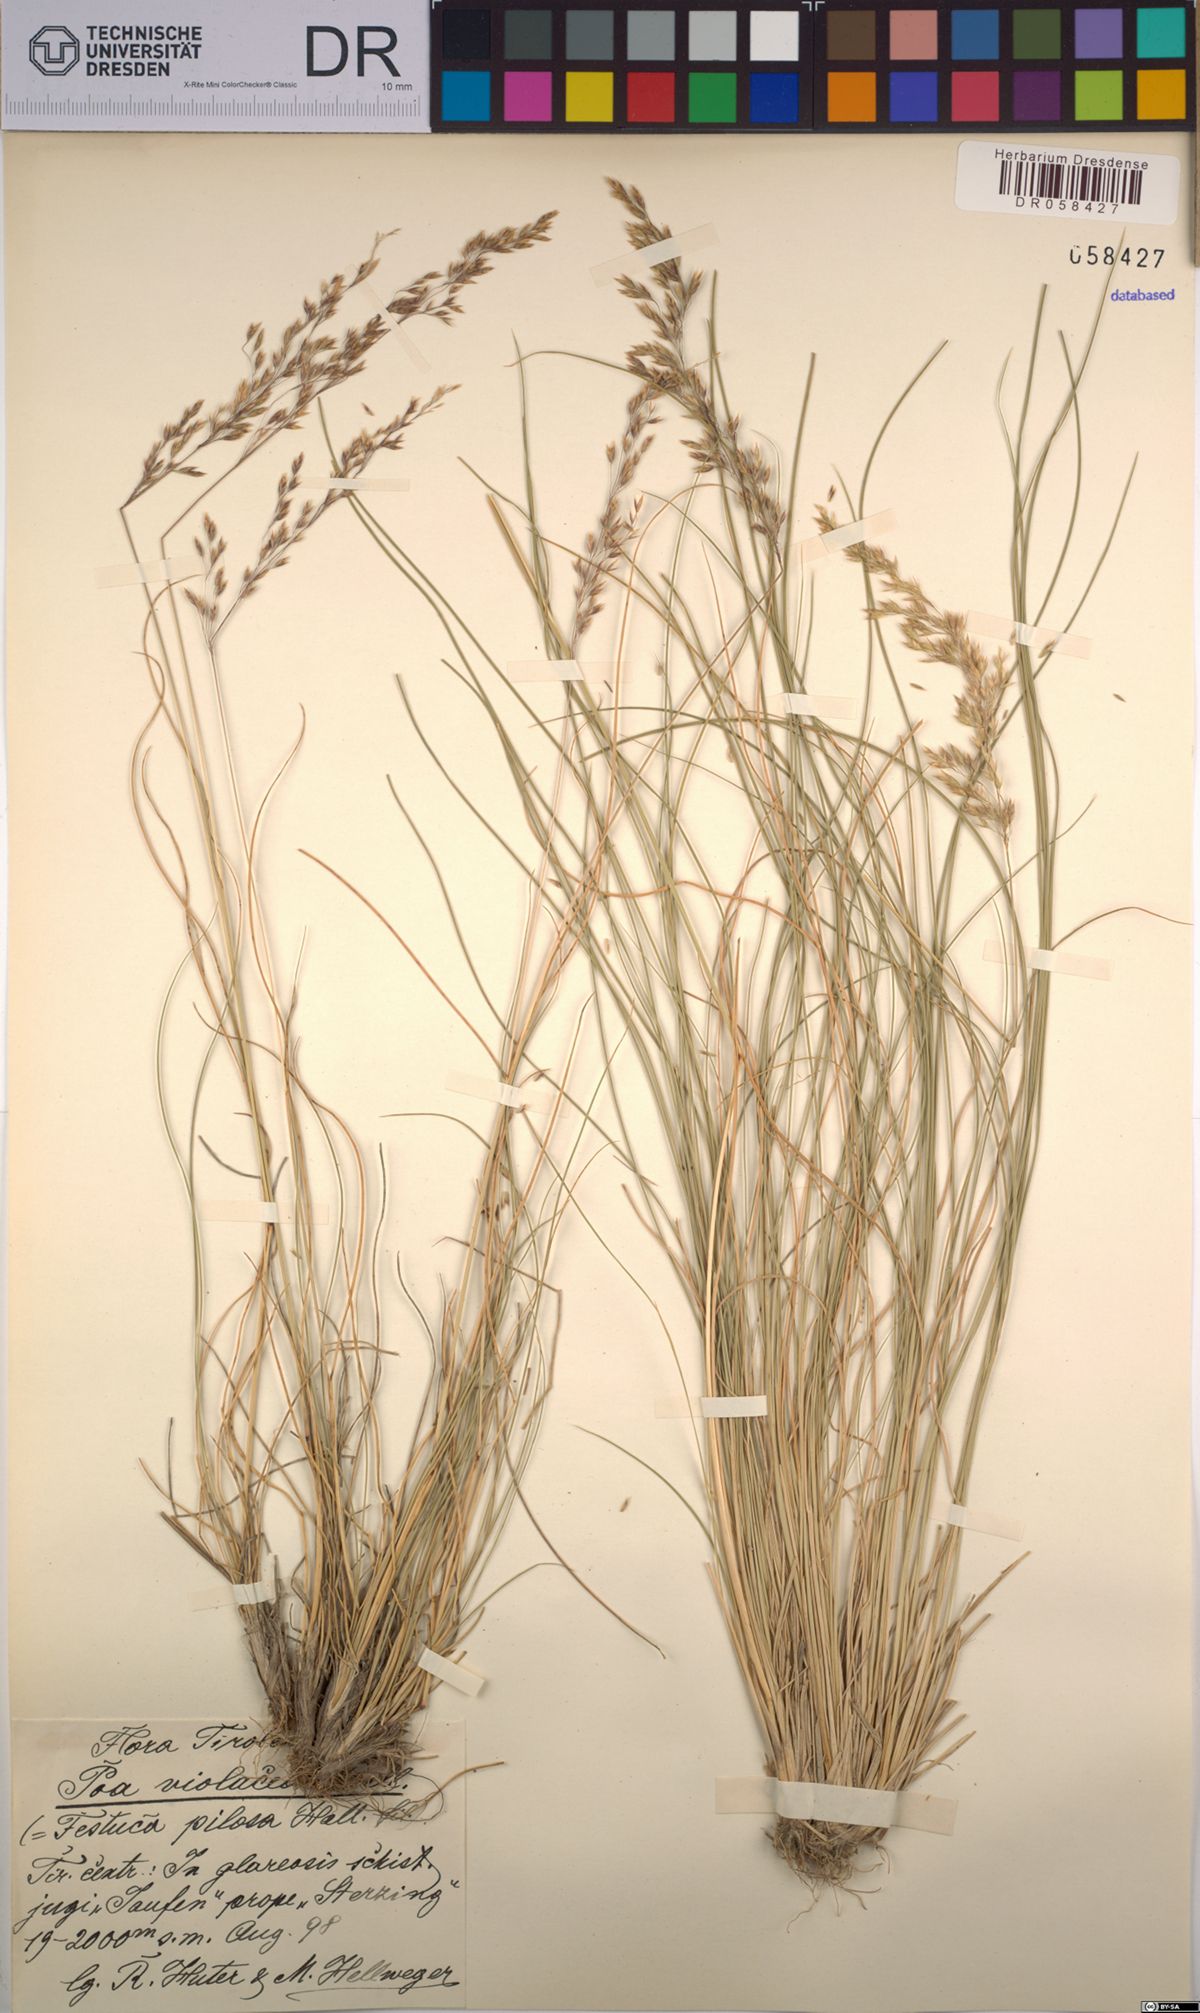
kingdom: Plantae
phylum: Tracheophyta
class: Liliopsida
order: Poales
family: Poaceae
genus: Bellardiochloa
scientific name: Bellardiochloa variegata
